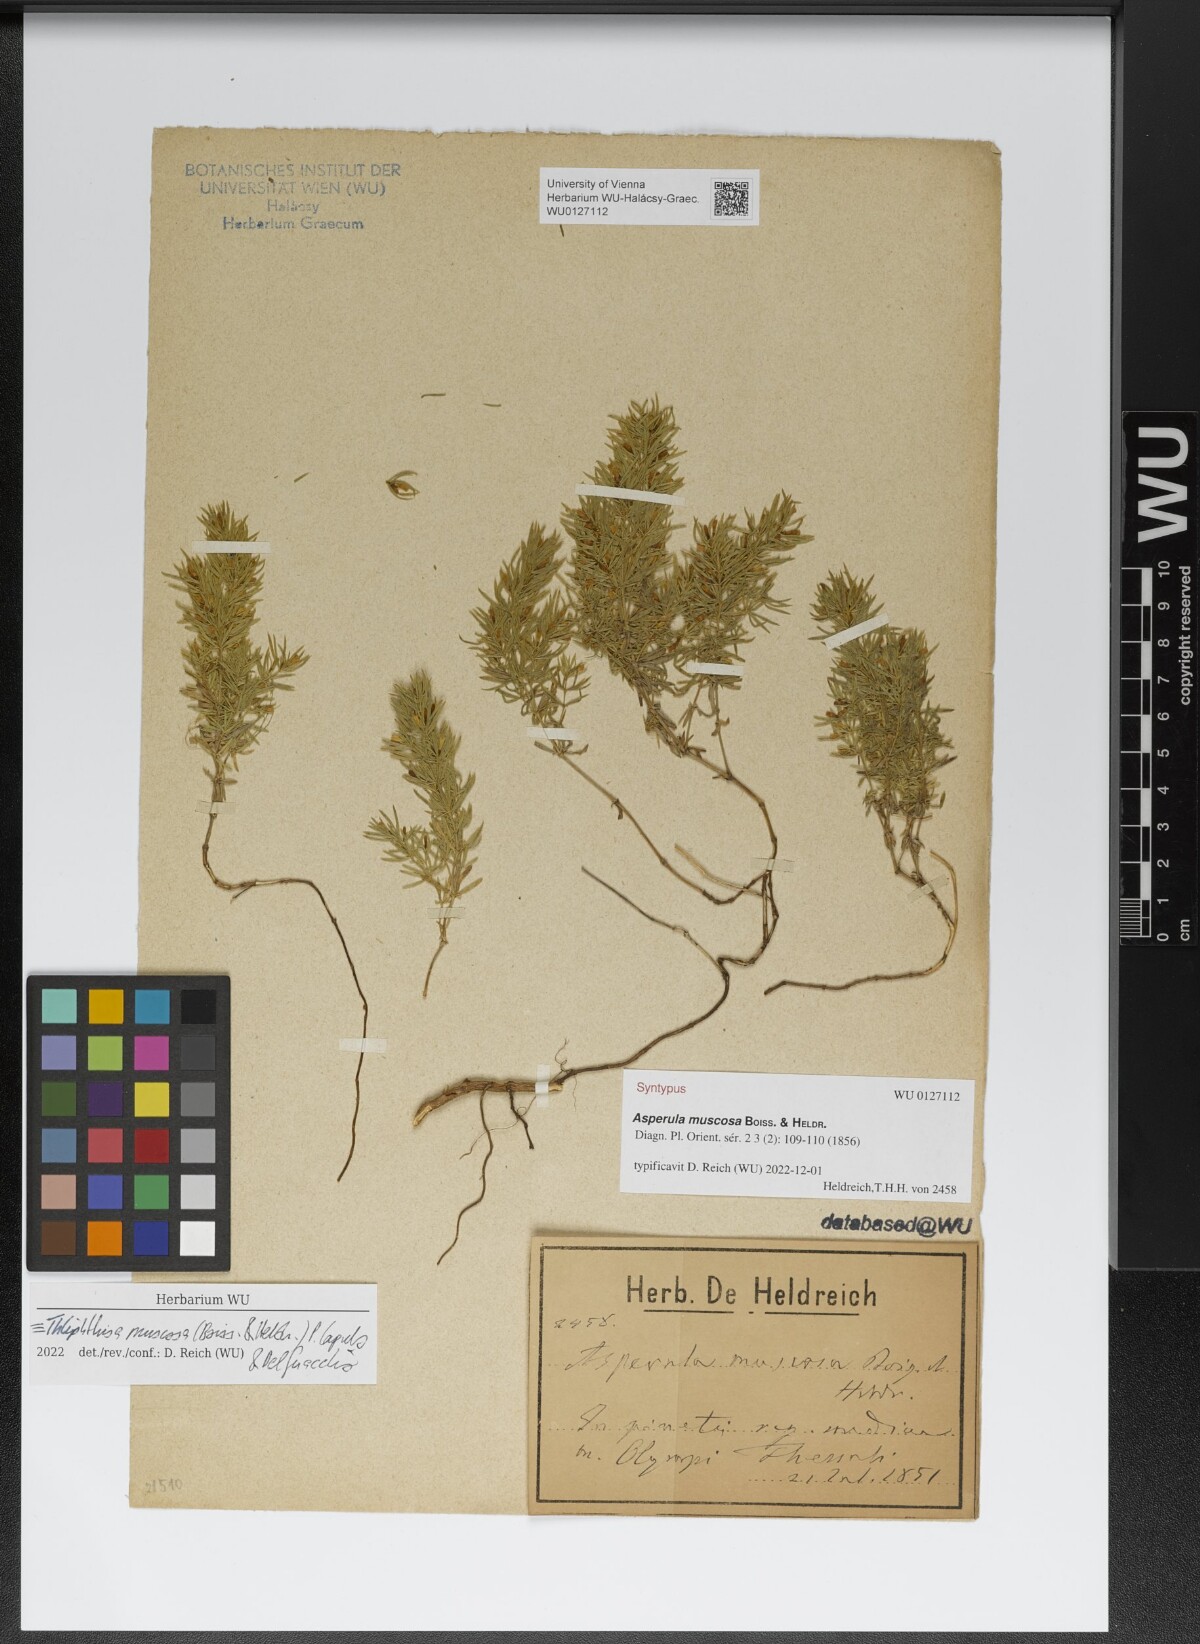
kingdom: Plantae
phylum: Tracheophyta
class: Magnoliopsida
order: Gentianales
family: Rubiaceae
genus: Thliphthisa
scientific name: Thliphthisa muscosa
